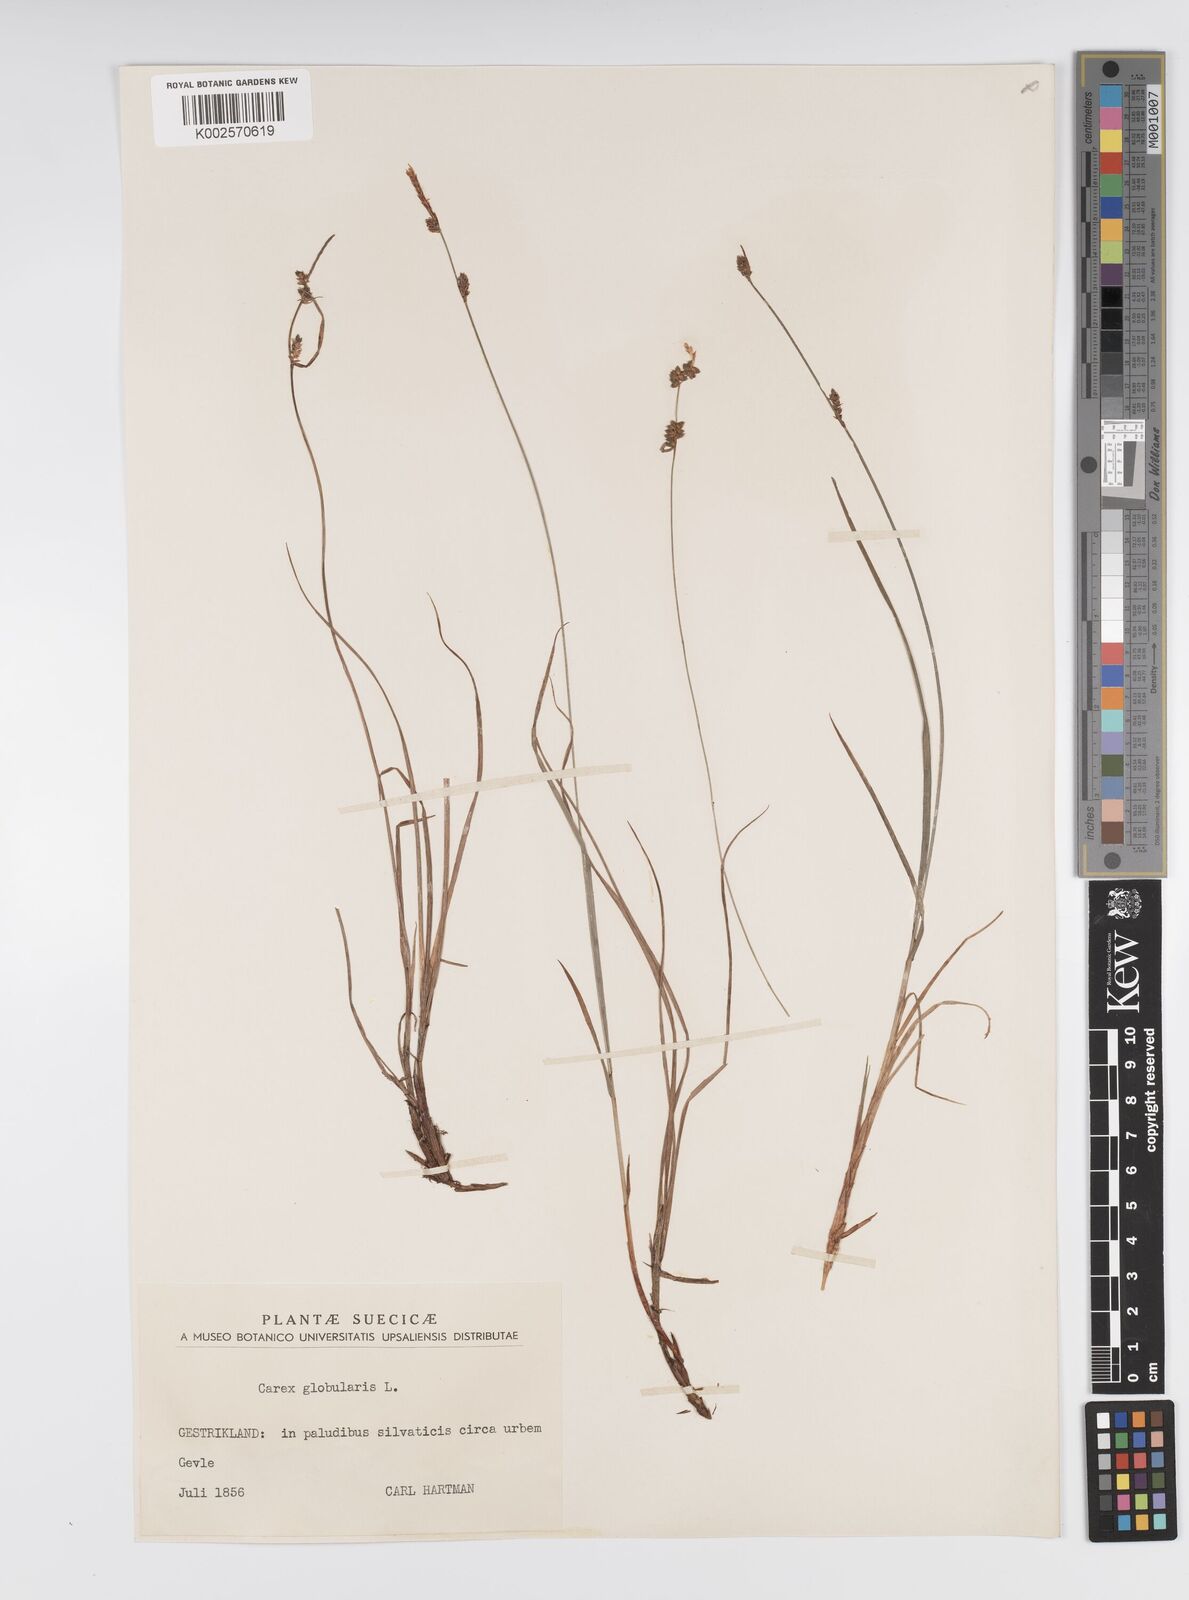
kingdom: Plantae
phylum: Tracheophyta
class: Liliopsida
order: Poales
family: Cyperaceae
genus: Carex
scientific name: Carex globularis
